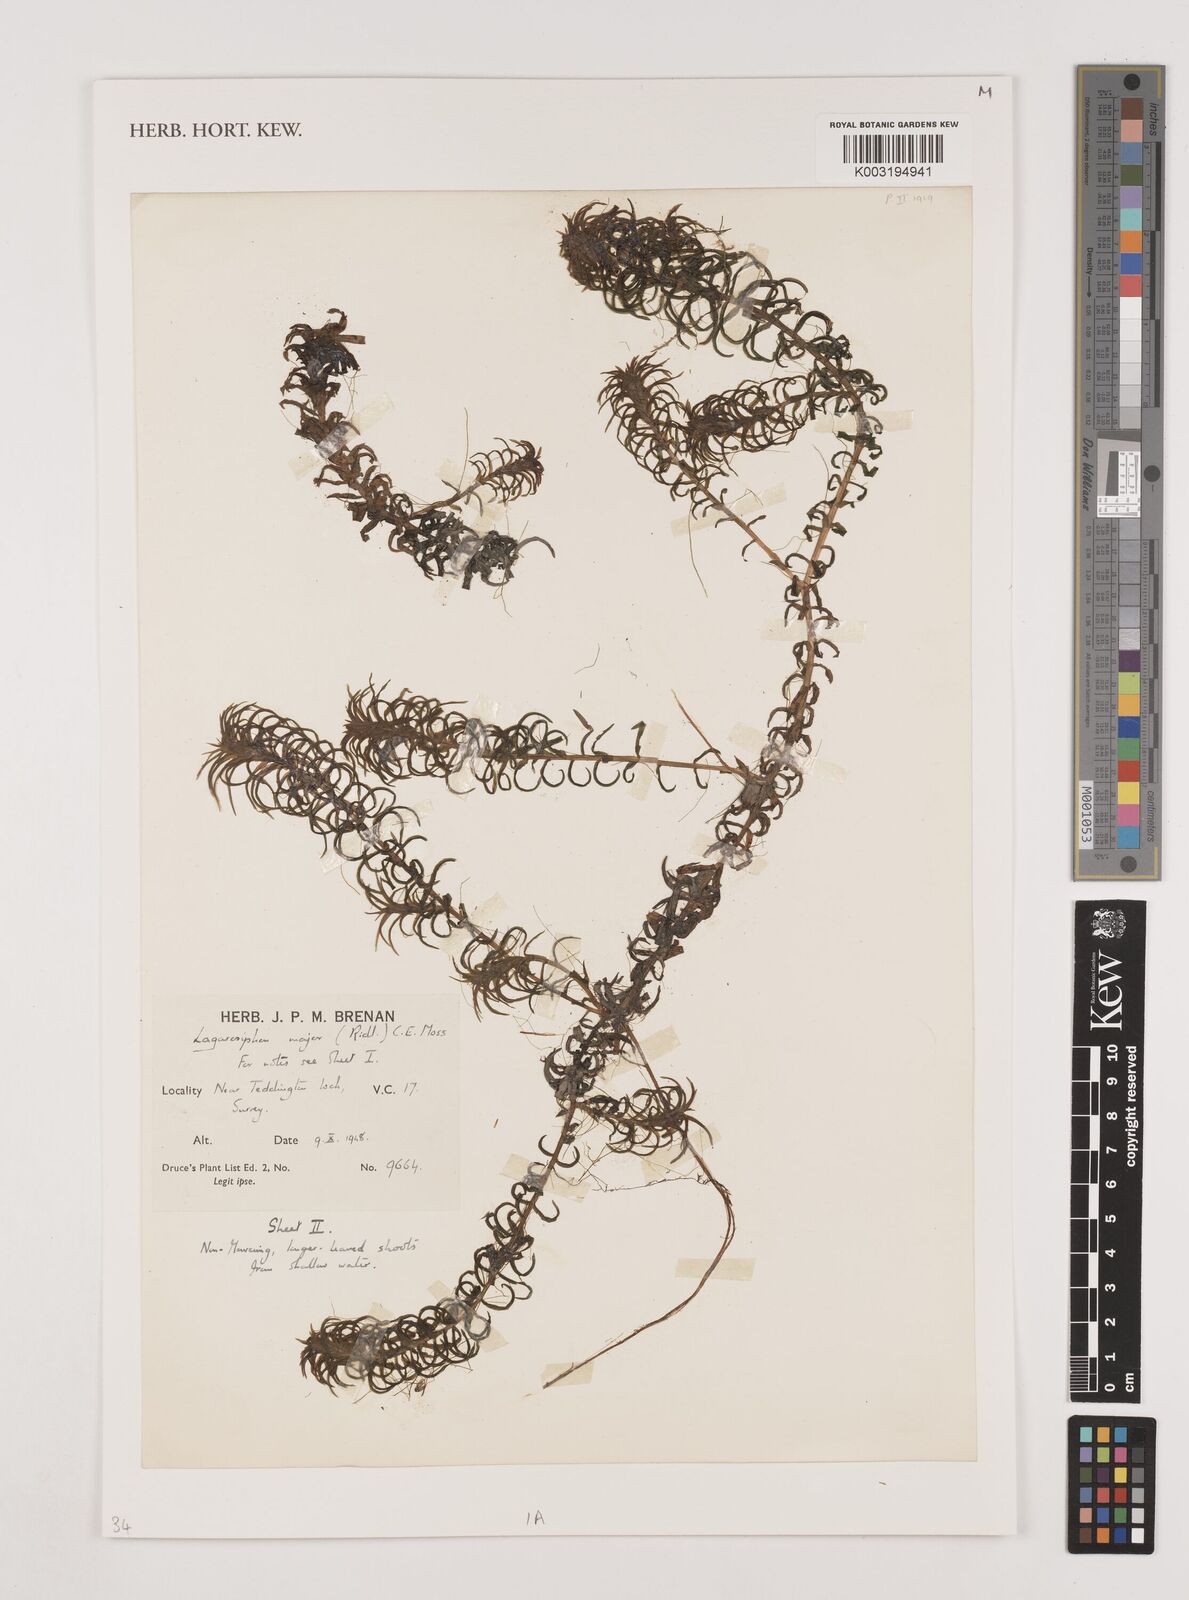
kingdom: Plantae
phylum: Tracheophyta
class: Liliopsida
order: Alismatales
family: Hydrocharitaceae
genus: Lagarosiphon
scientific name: Lagarosiphon major
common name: Curly waterweed
